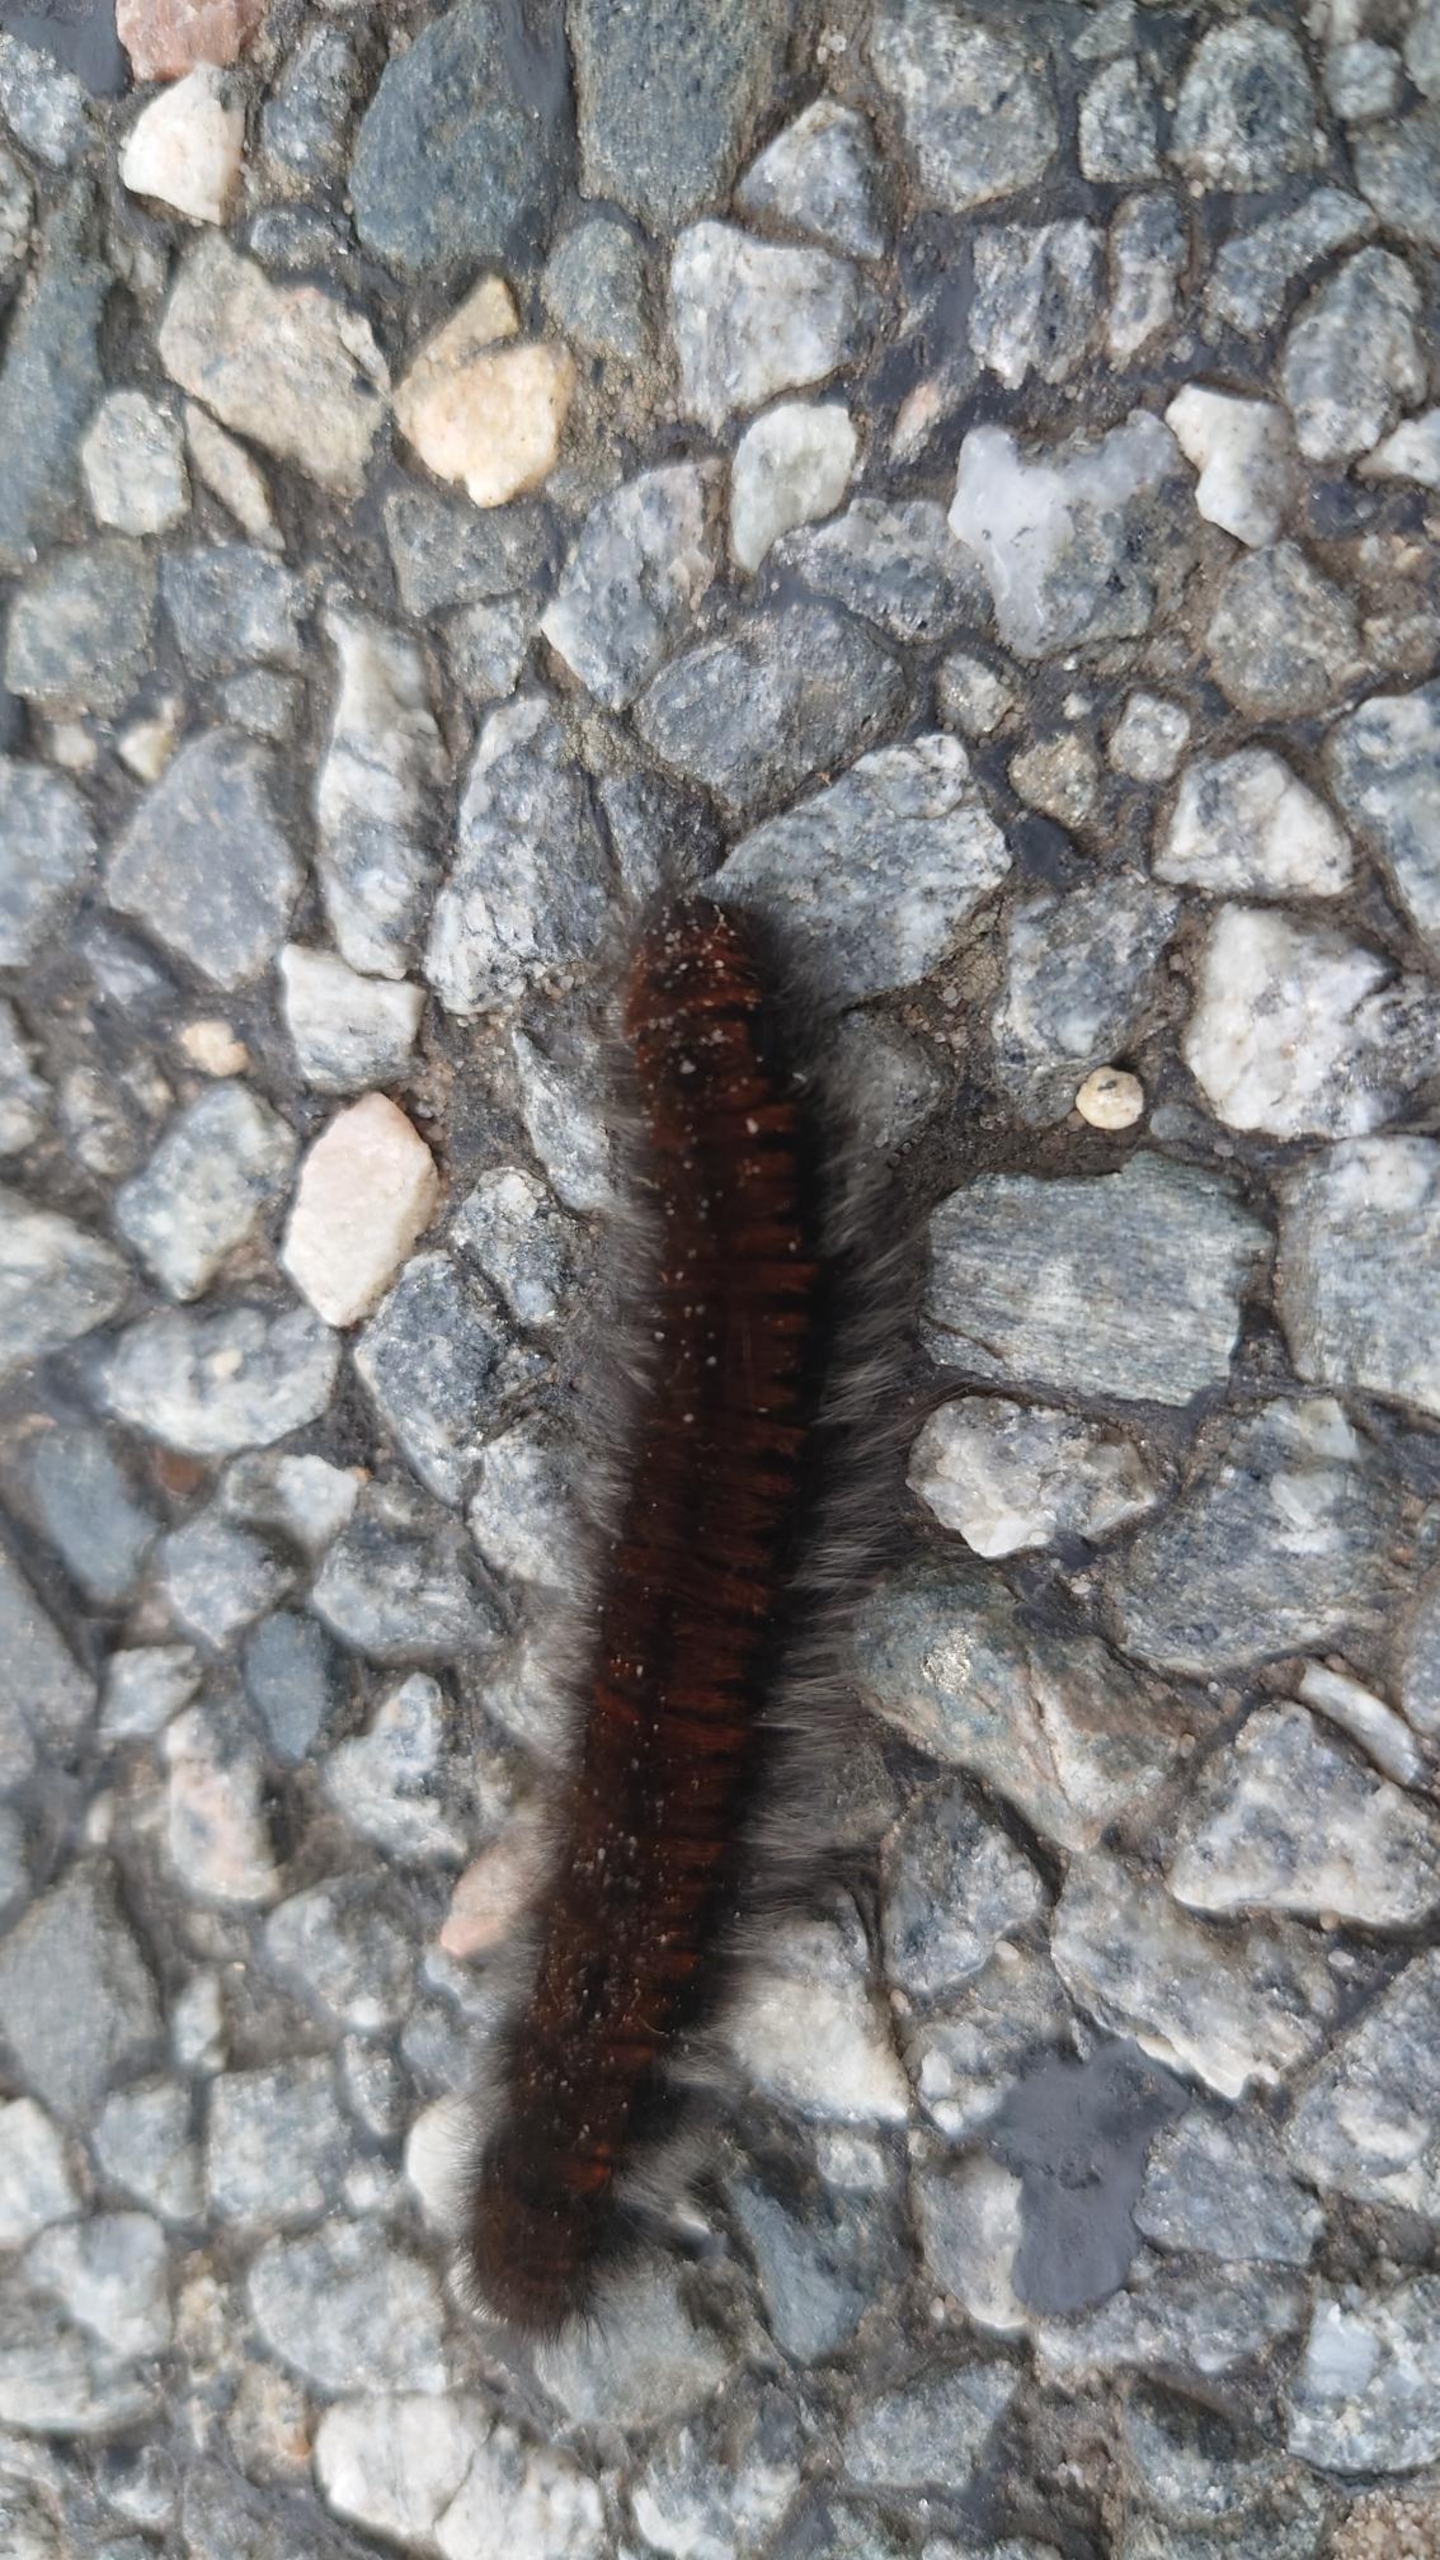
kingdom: Animalia
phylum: Arthropoda
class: Insecta
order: Lepidoptera
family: Lasiocampidae
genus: Macrothylacia
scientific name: Macrothylacia rubi
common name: Brombærspinder
